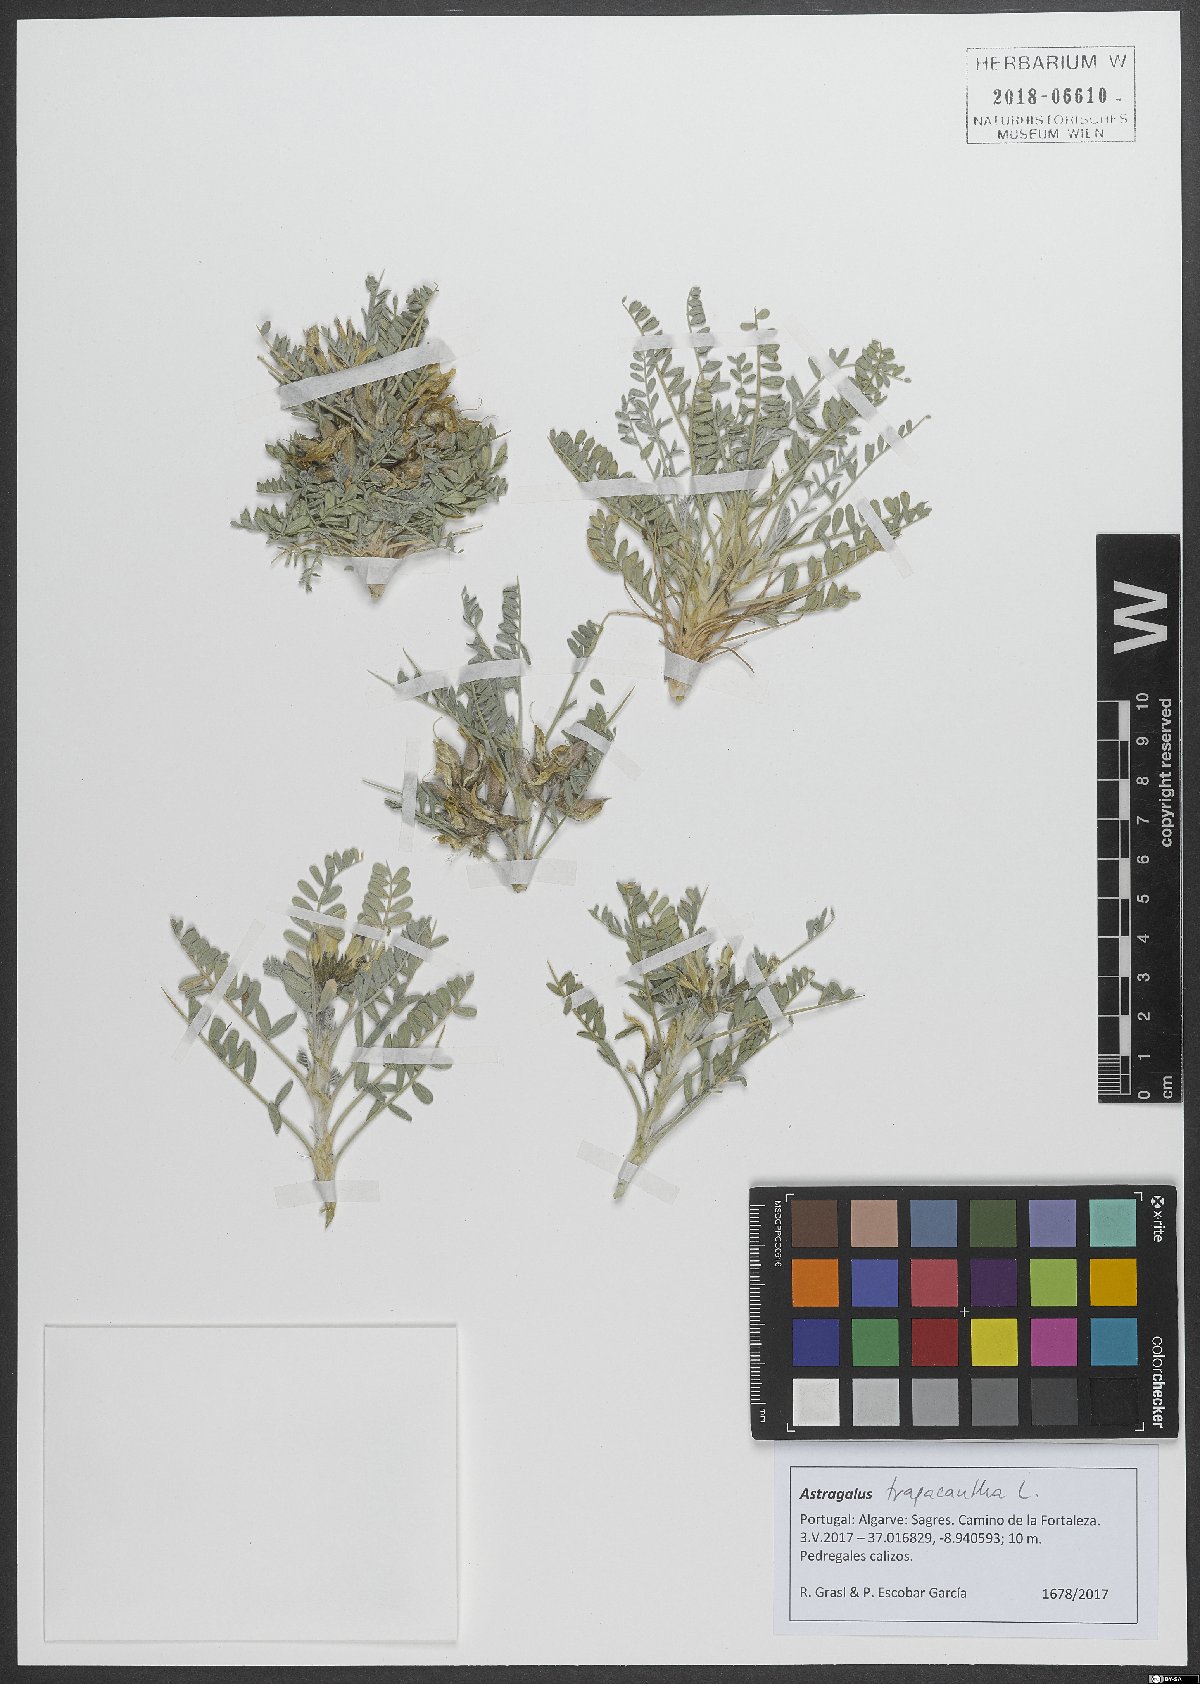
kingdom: Plantae
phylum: Tracheophyta
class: Magnoliopsida
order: Fabales
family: Fabaceae
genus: Astragalus
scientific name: Astragalus tragacantha
